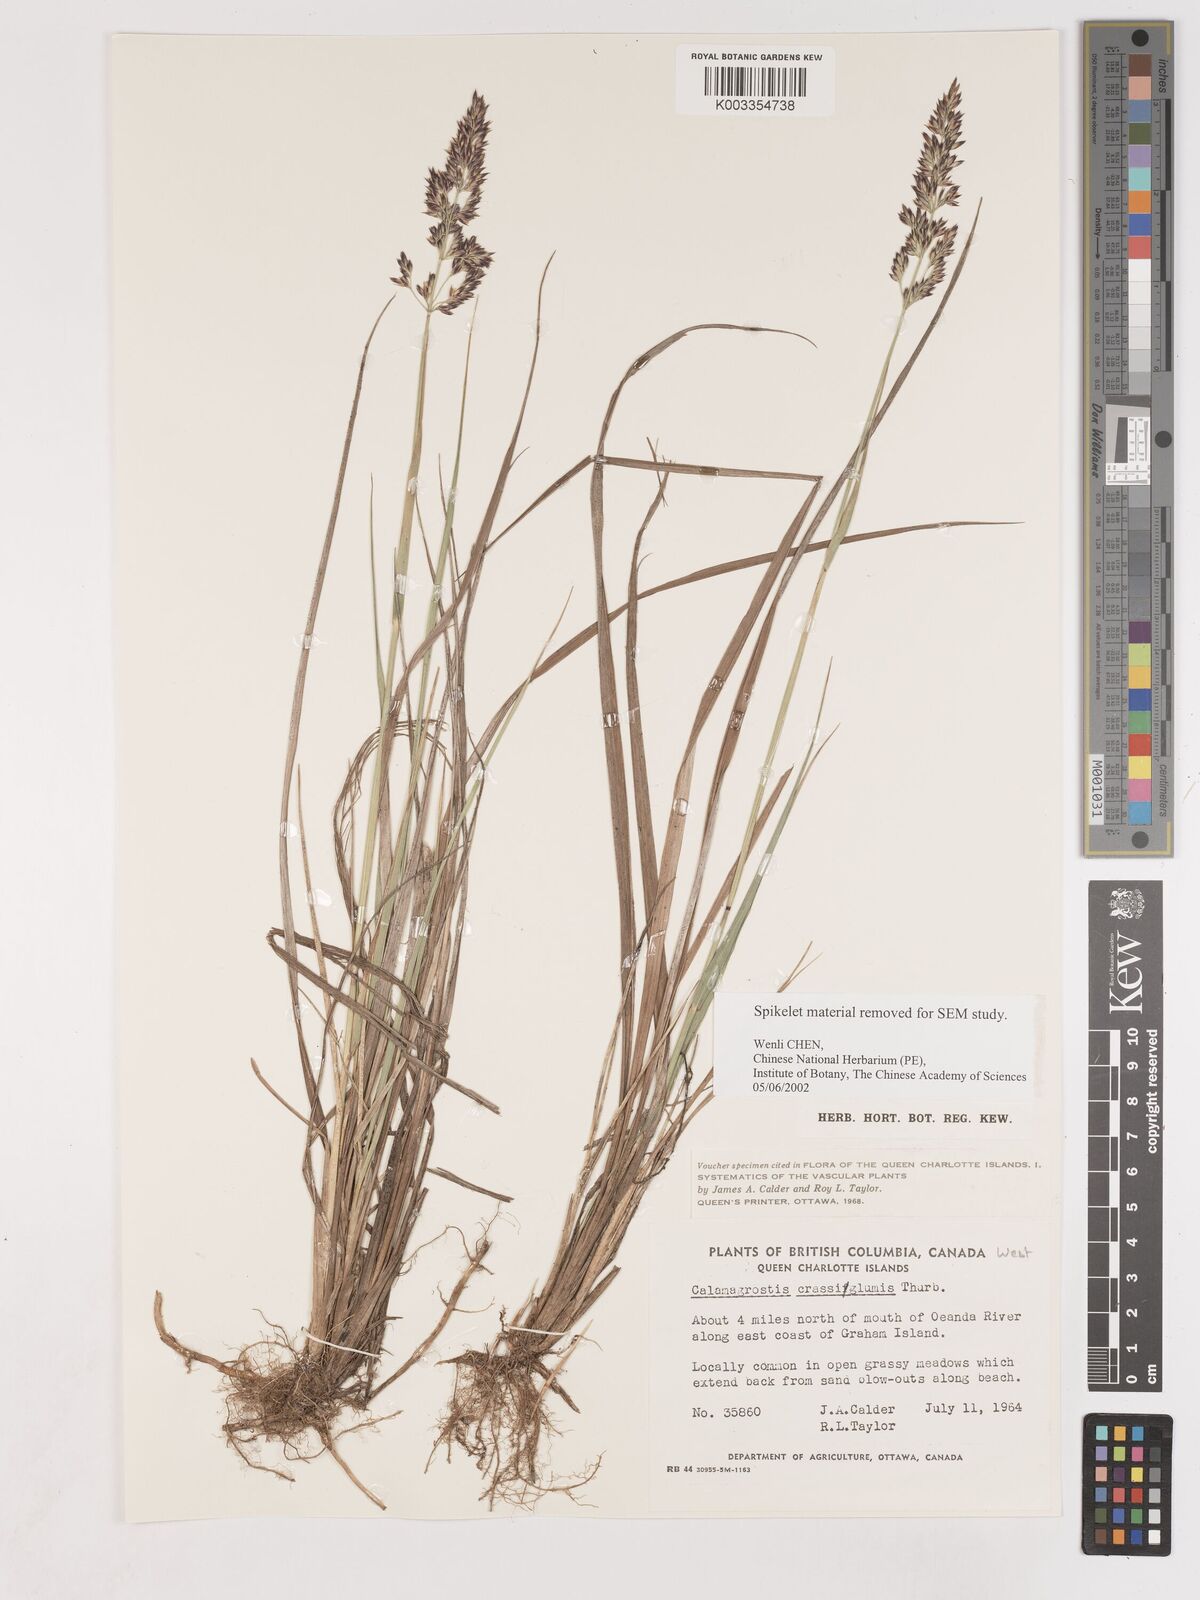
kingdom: Plantae
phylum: Tracheophyta
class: Liliopsida
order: Poales
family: Poaceae
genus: Cinnagrostis
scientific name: Cinnagrostis recta
